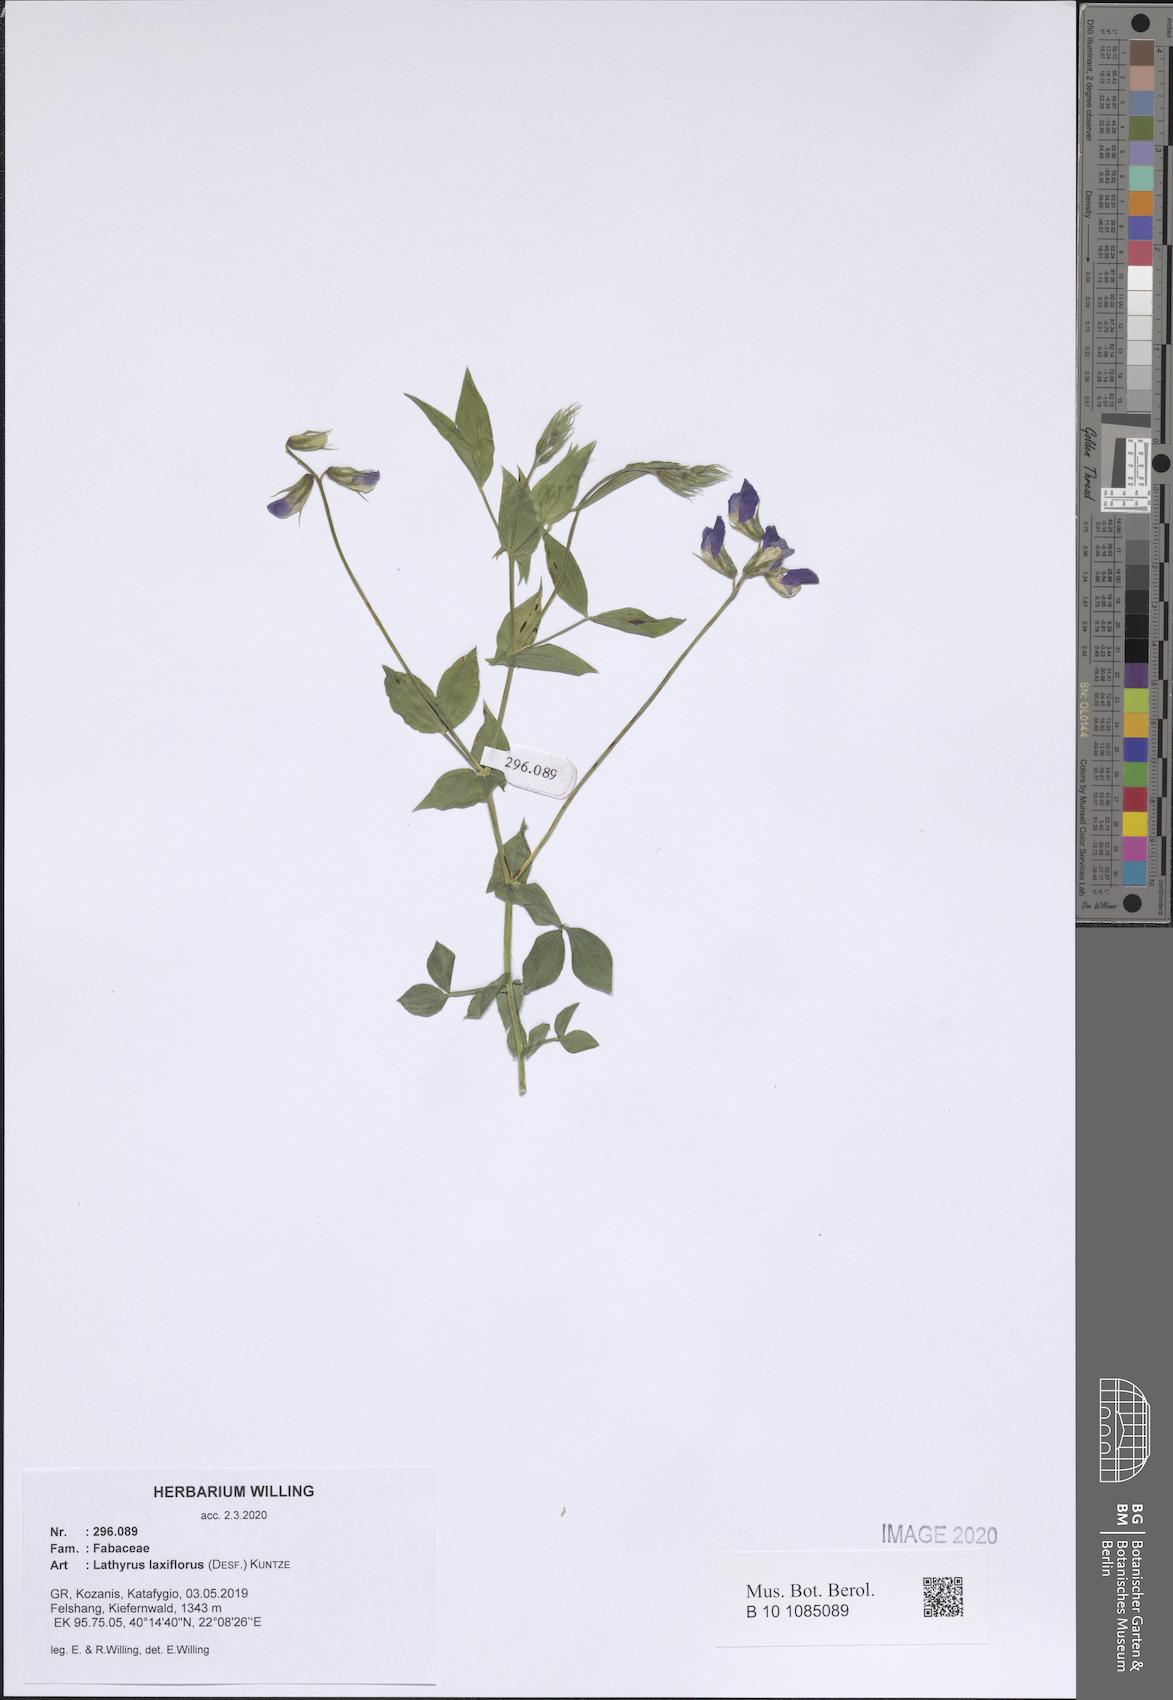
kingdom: Plantae
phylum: Tracheophyta
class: Magnoliopsida
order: Fabales
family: Fabaceae
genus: Lathyrus
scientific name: Lathyrus laxiflorus
